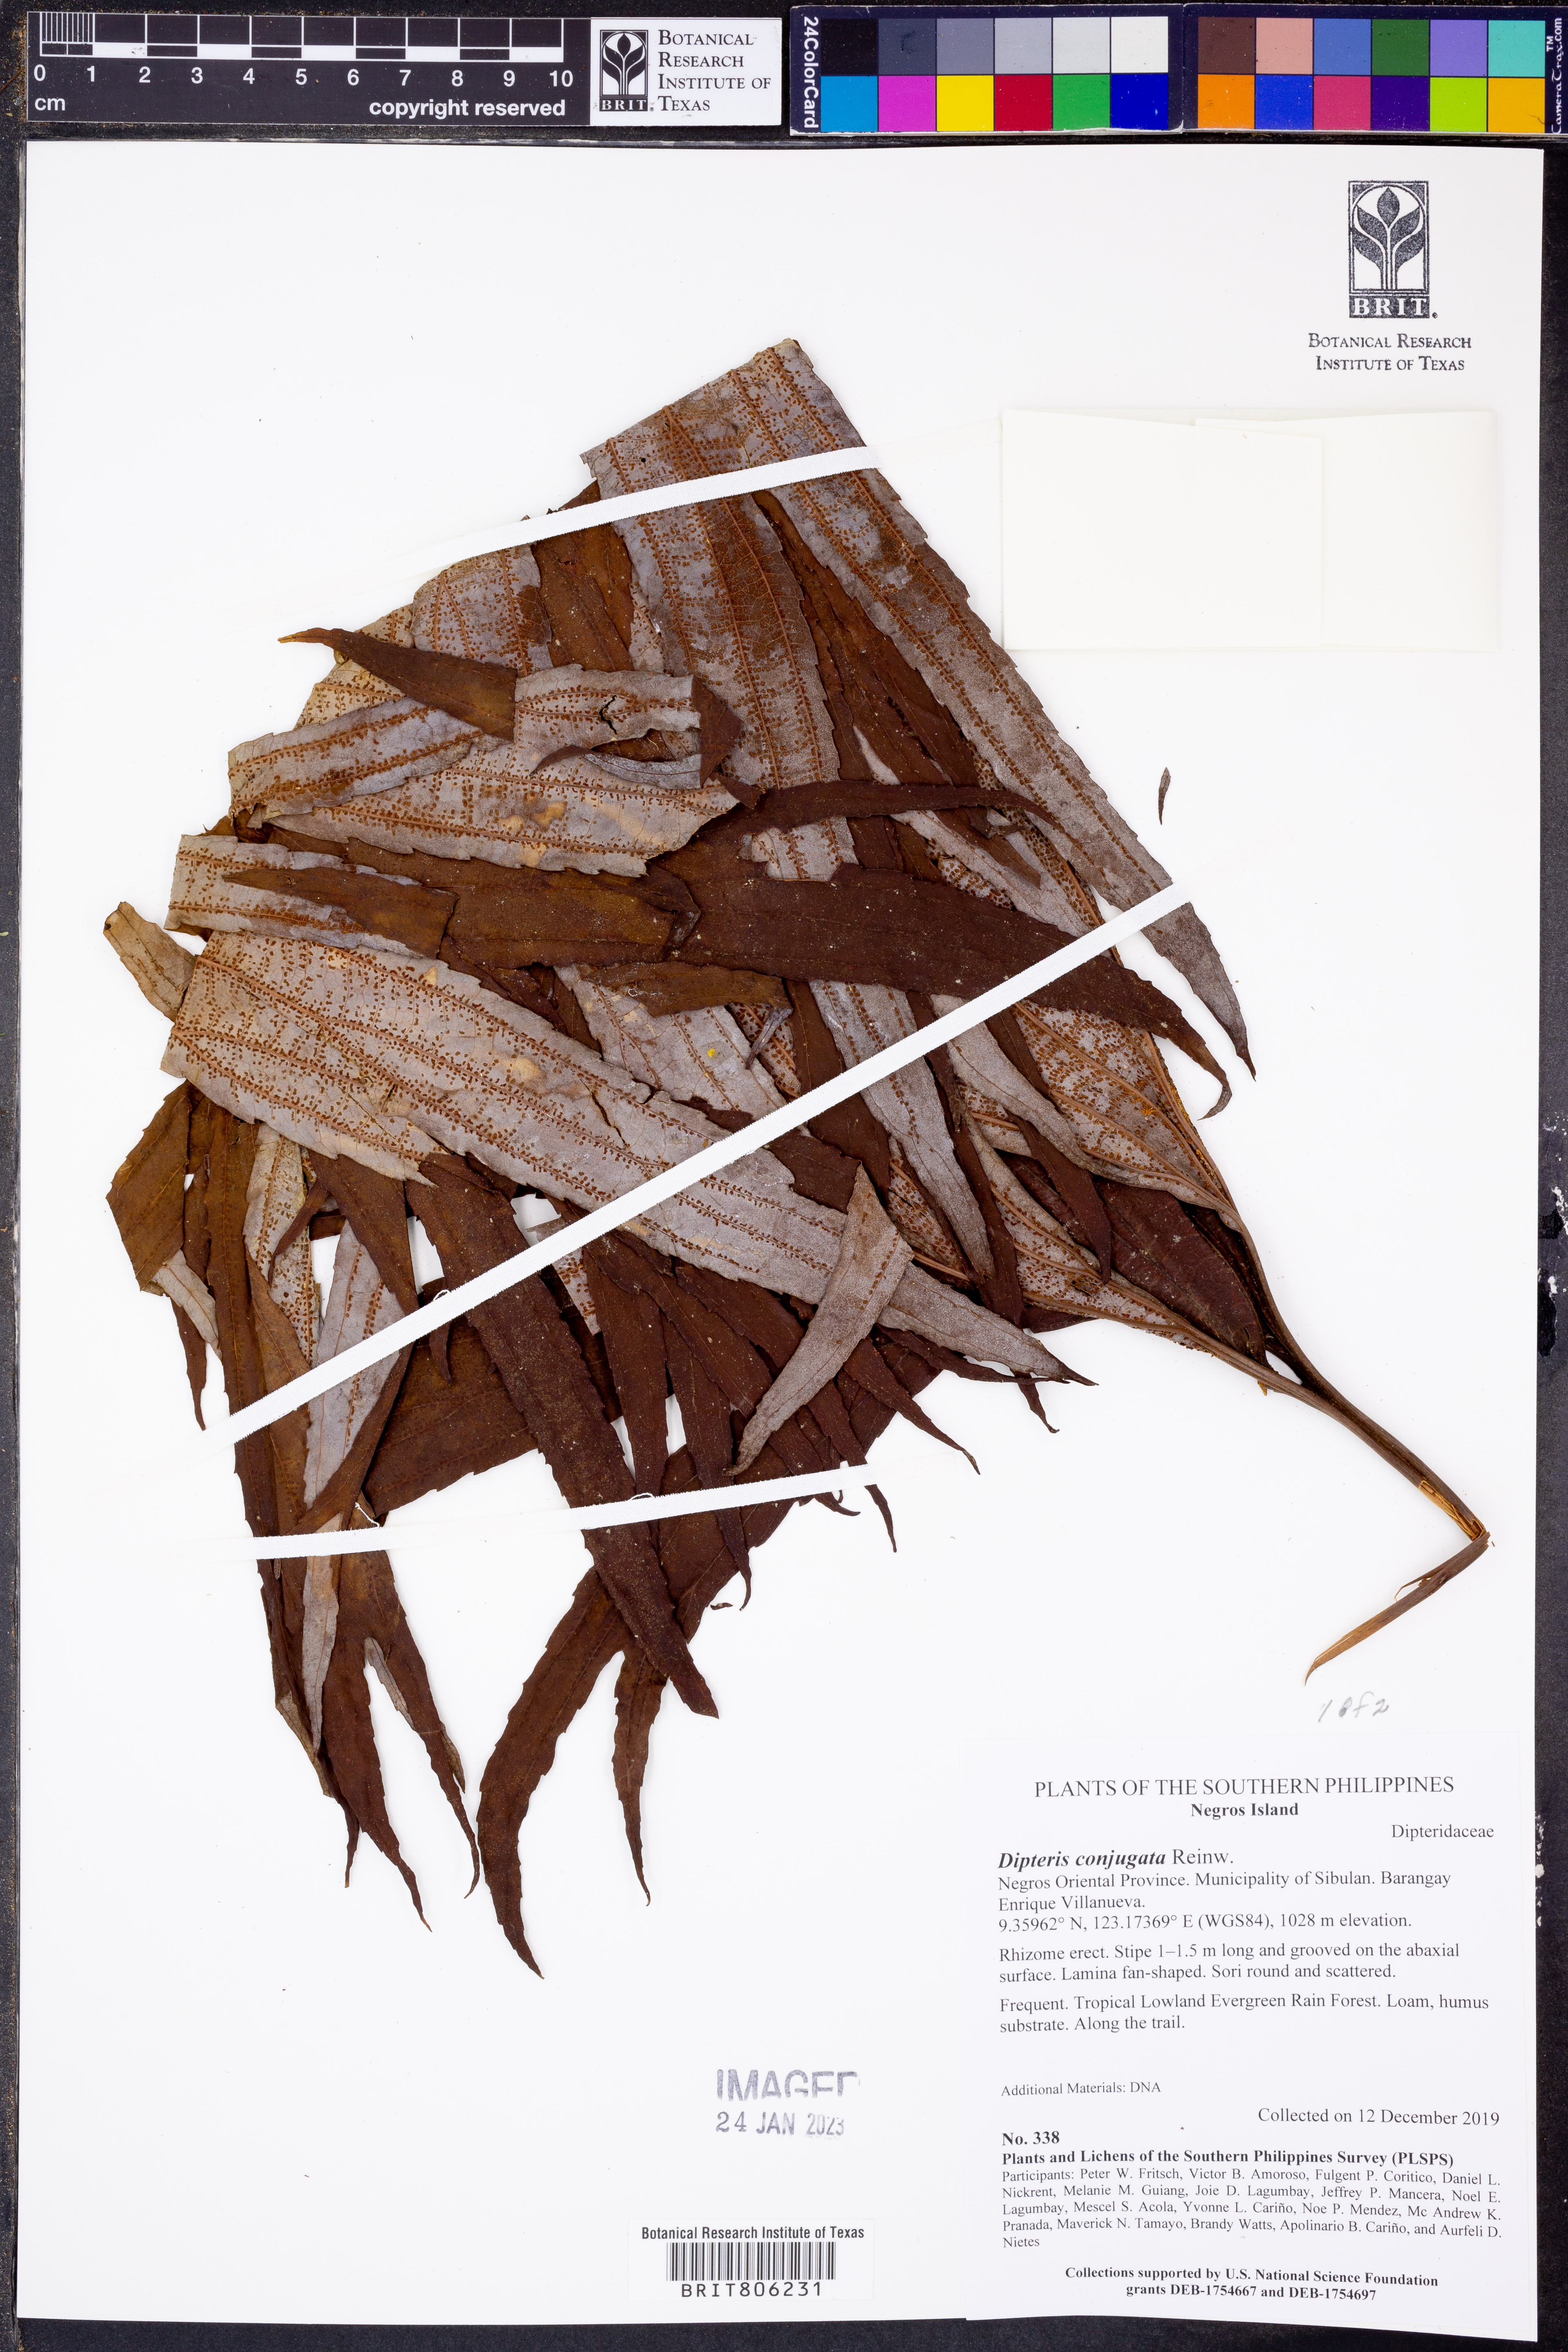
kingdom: Plantae
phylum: Tracheophyta
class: Polypodiopsida
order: Gleicheniales
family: Dipteridaceae
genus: Dipteris
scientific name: Dipteris conjugata
